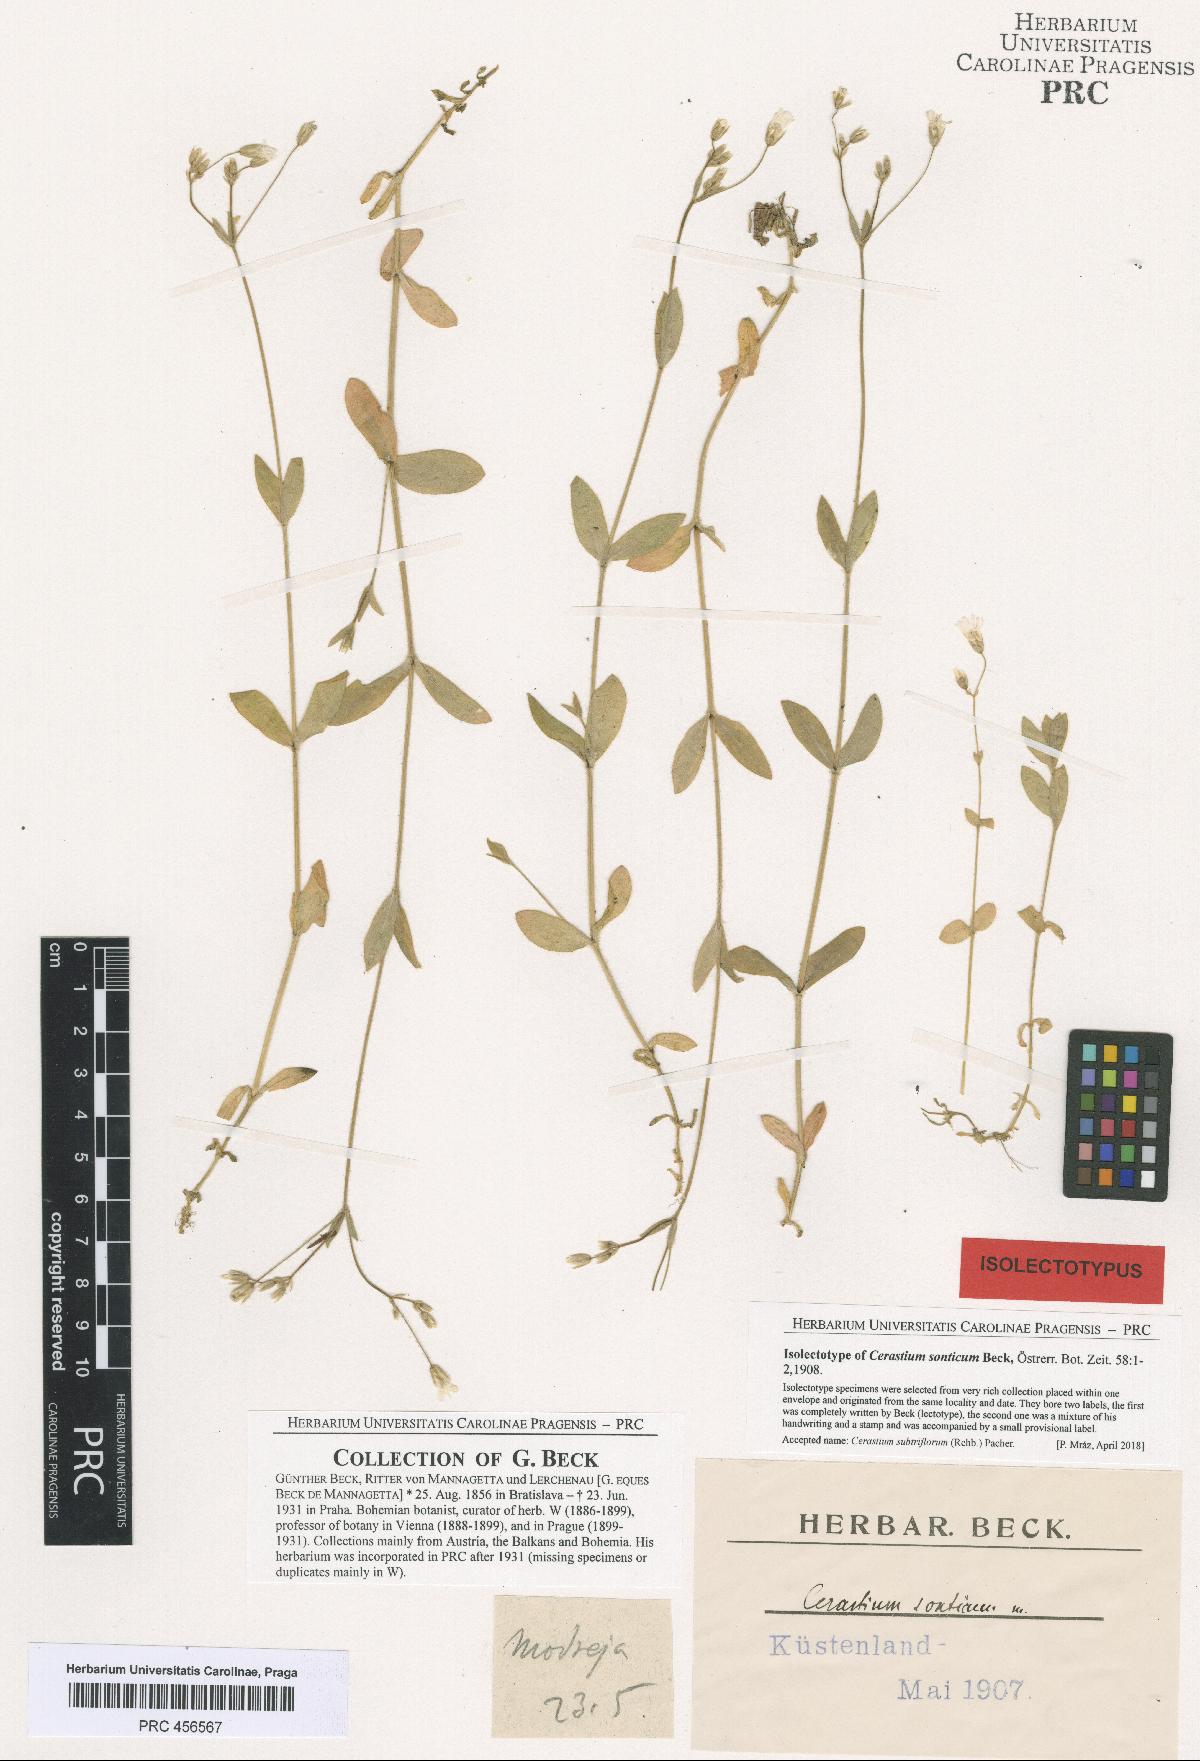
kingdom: Plantae
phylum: Tracheophyta
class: Magnoliopsida
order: Caryophyllales
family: Caryophyllaceae
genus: Cerastium
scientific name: Cerastium subtriflorum
